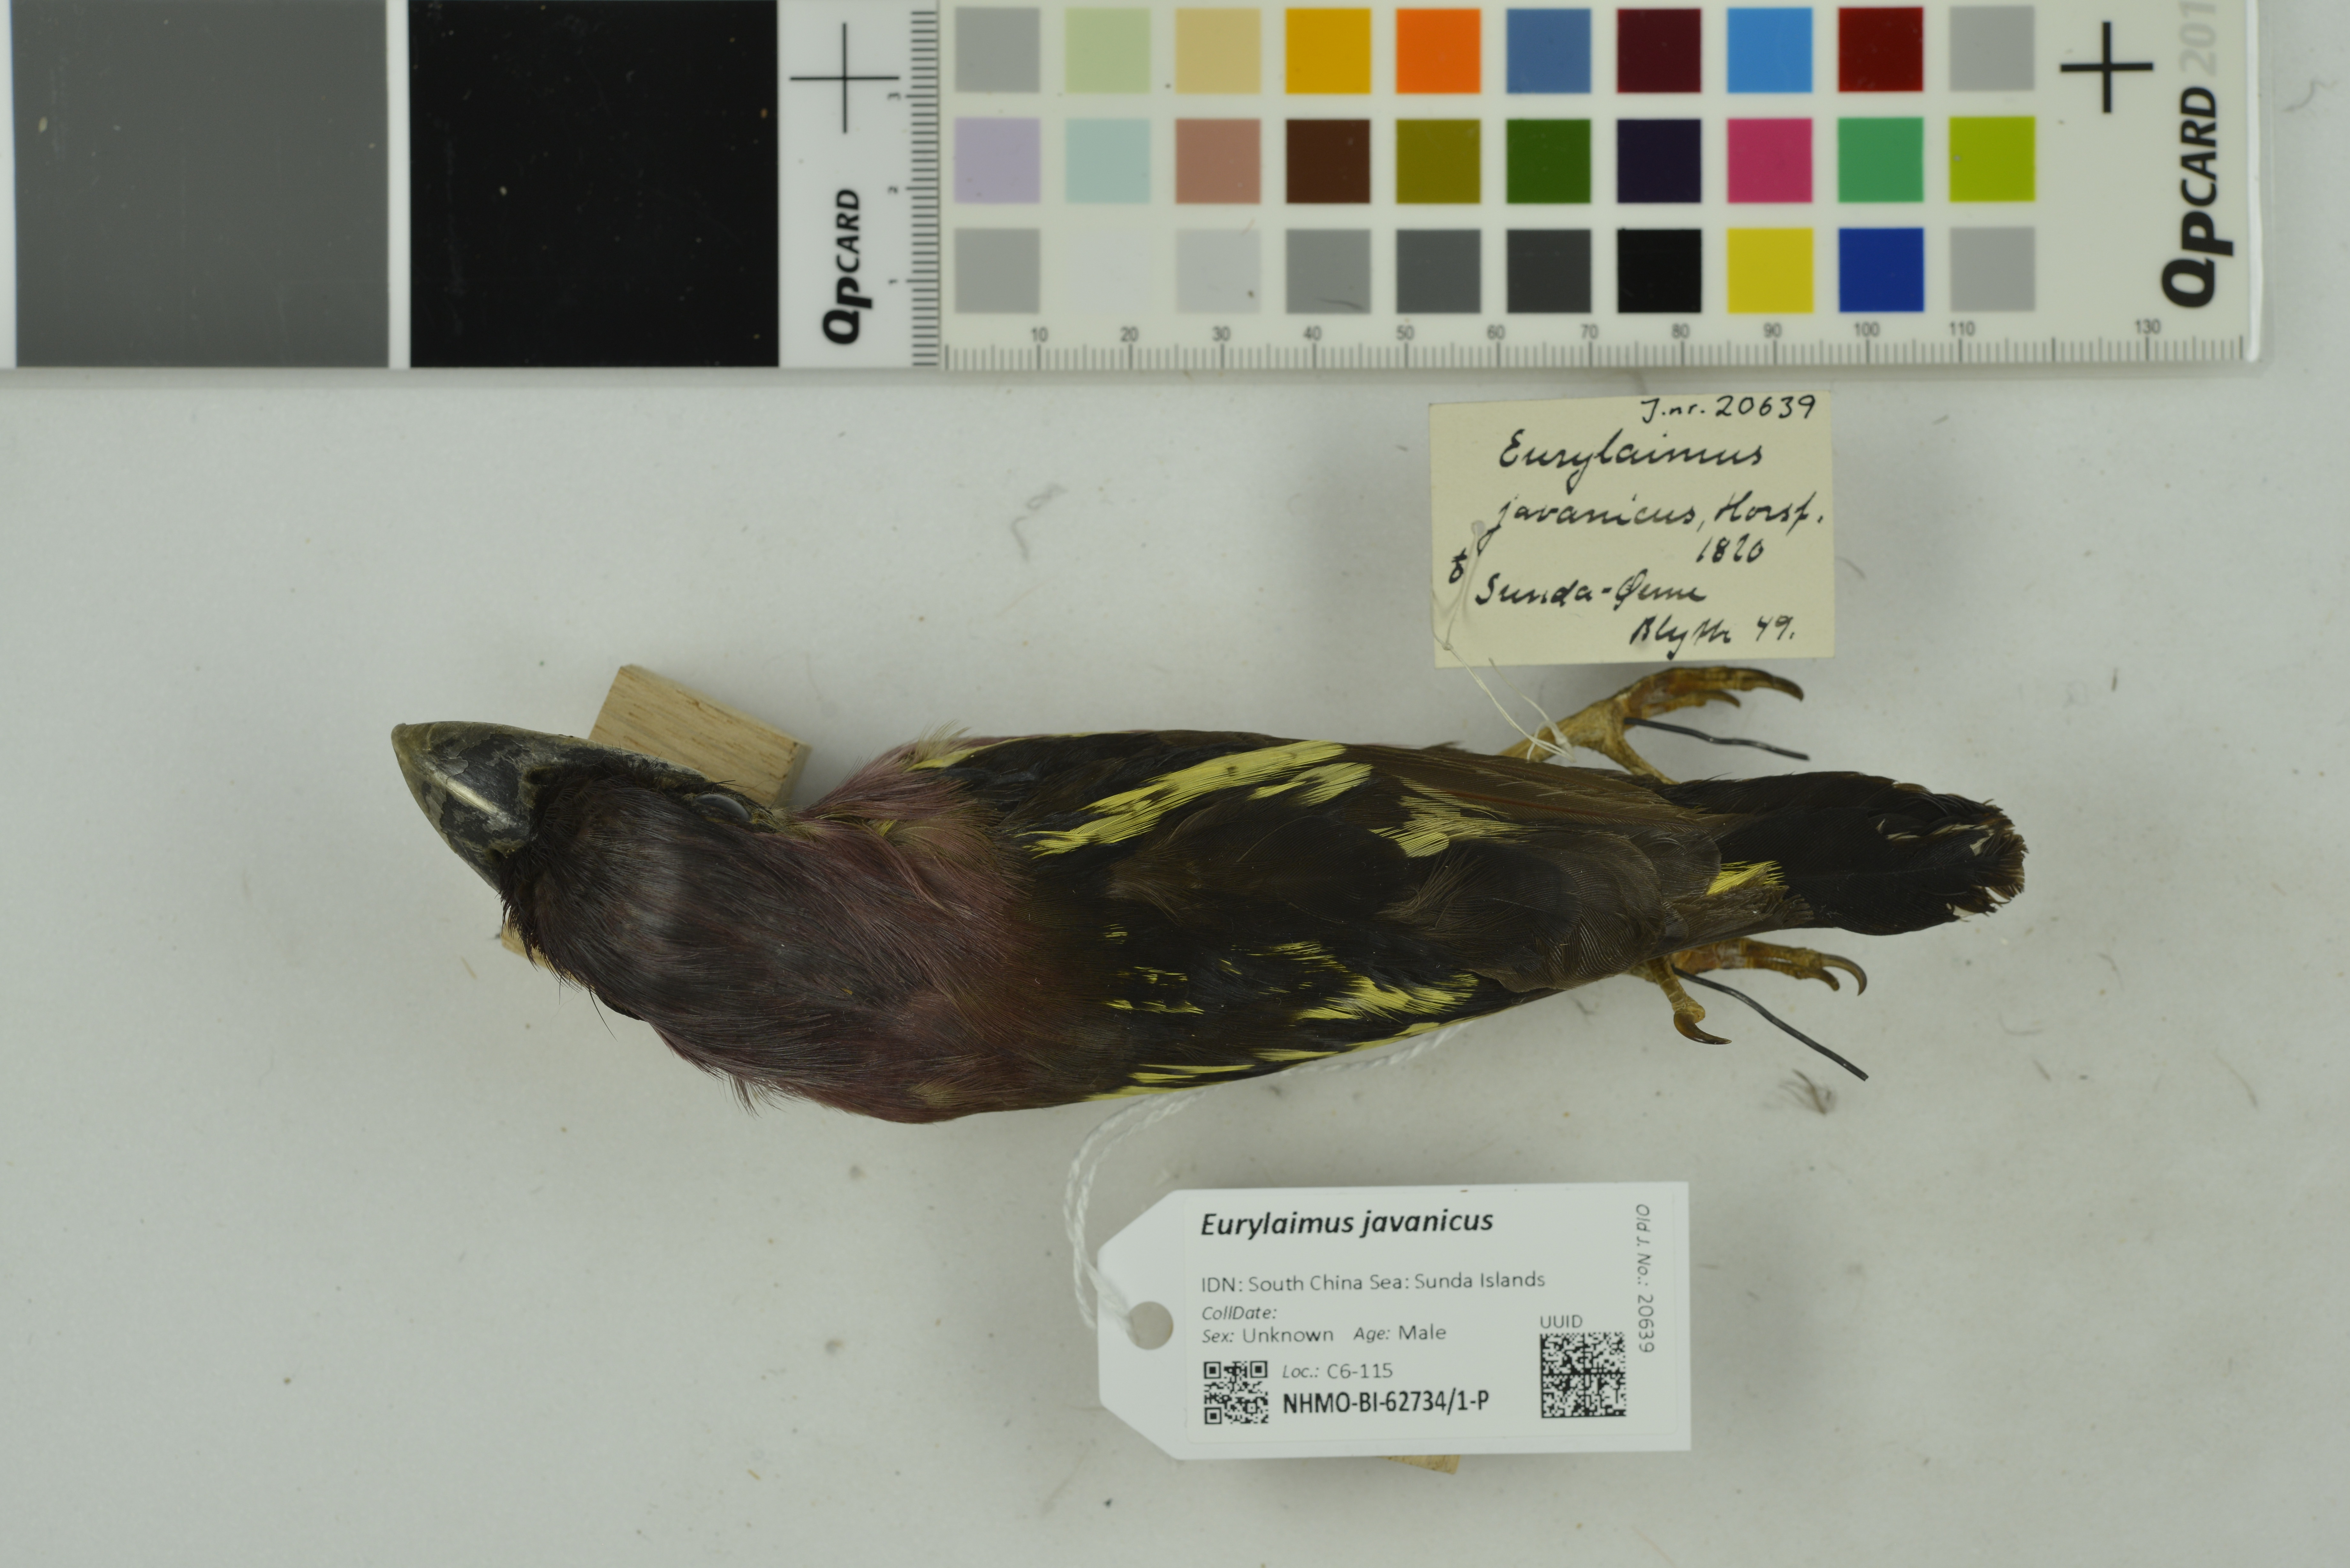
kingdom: Animalia
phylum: Chordata
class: Aves
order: Passeriformes
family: Eurylaimidae
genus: Eurylaimus
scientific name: Eurylaimus javanicus
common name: Banded broadbill
